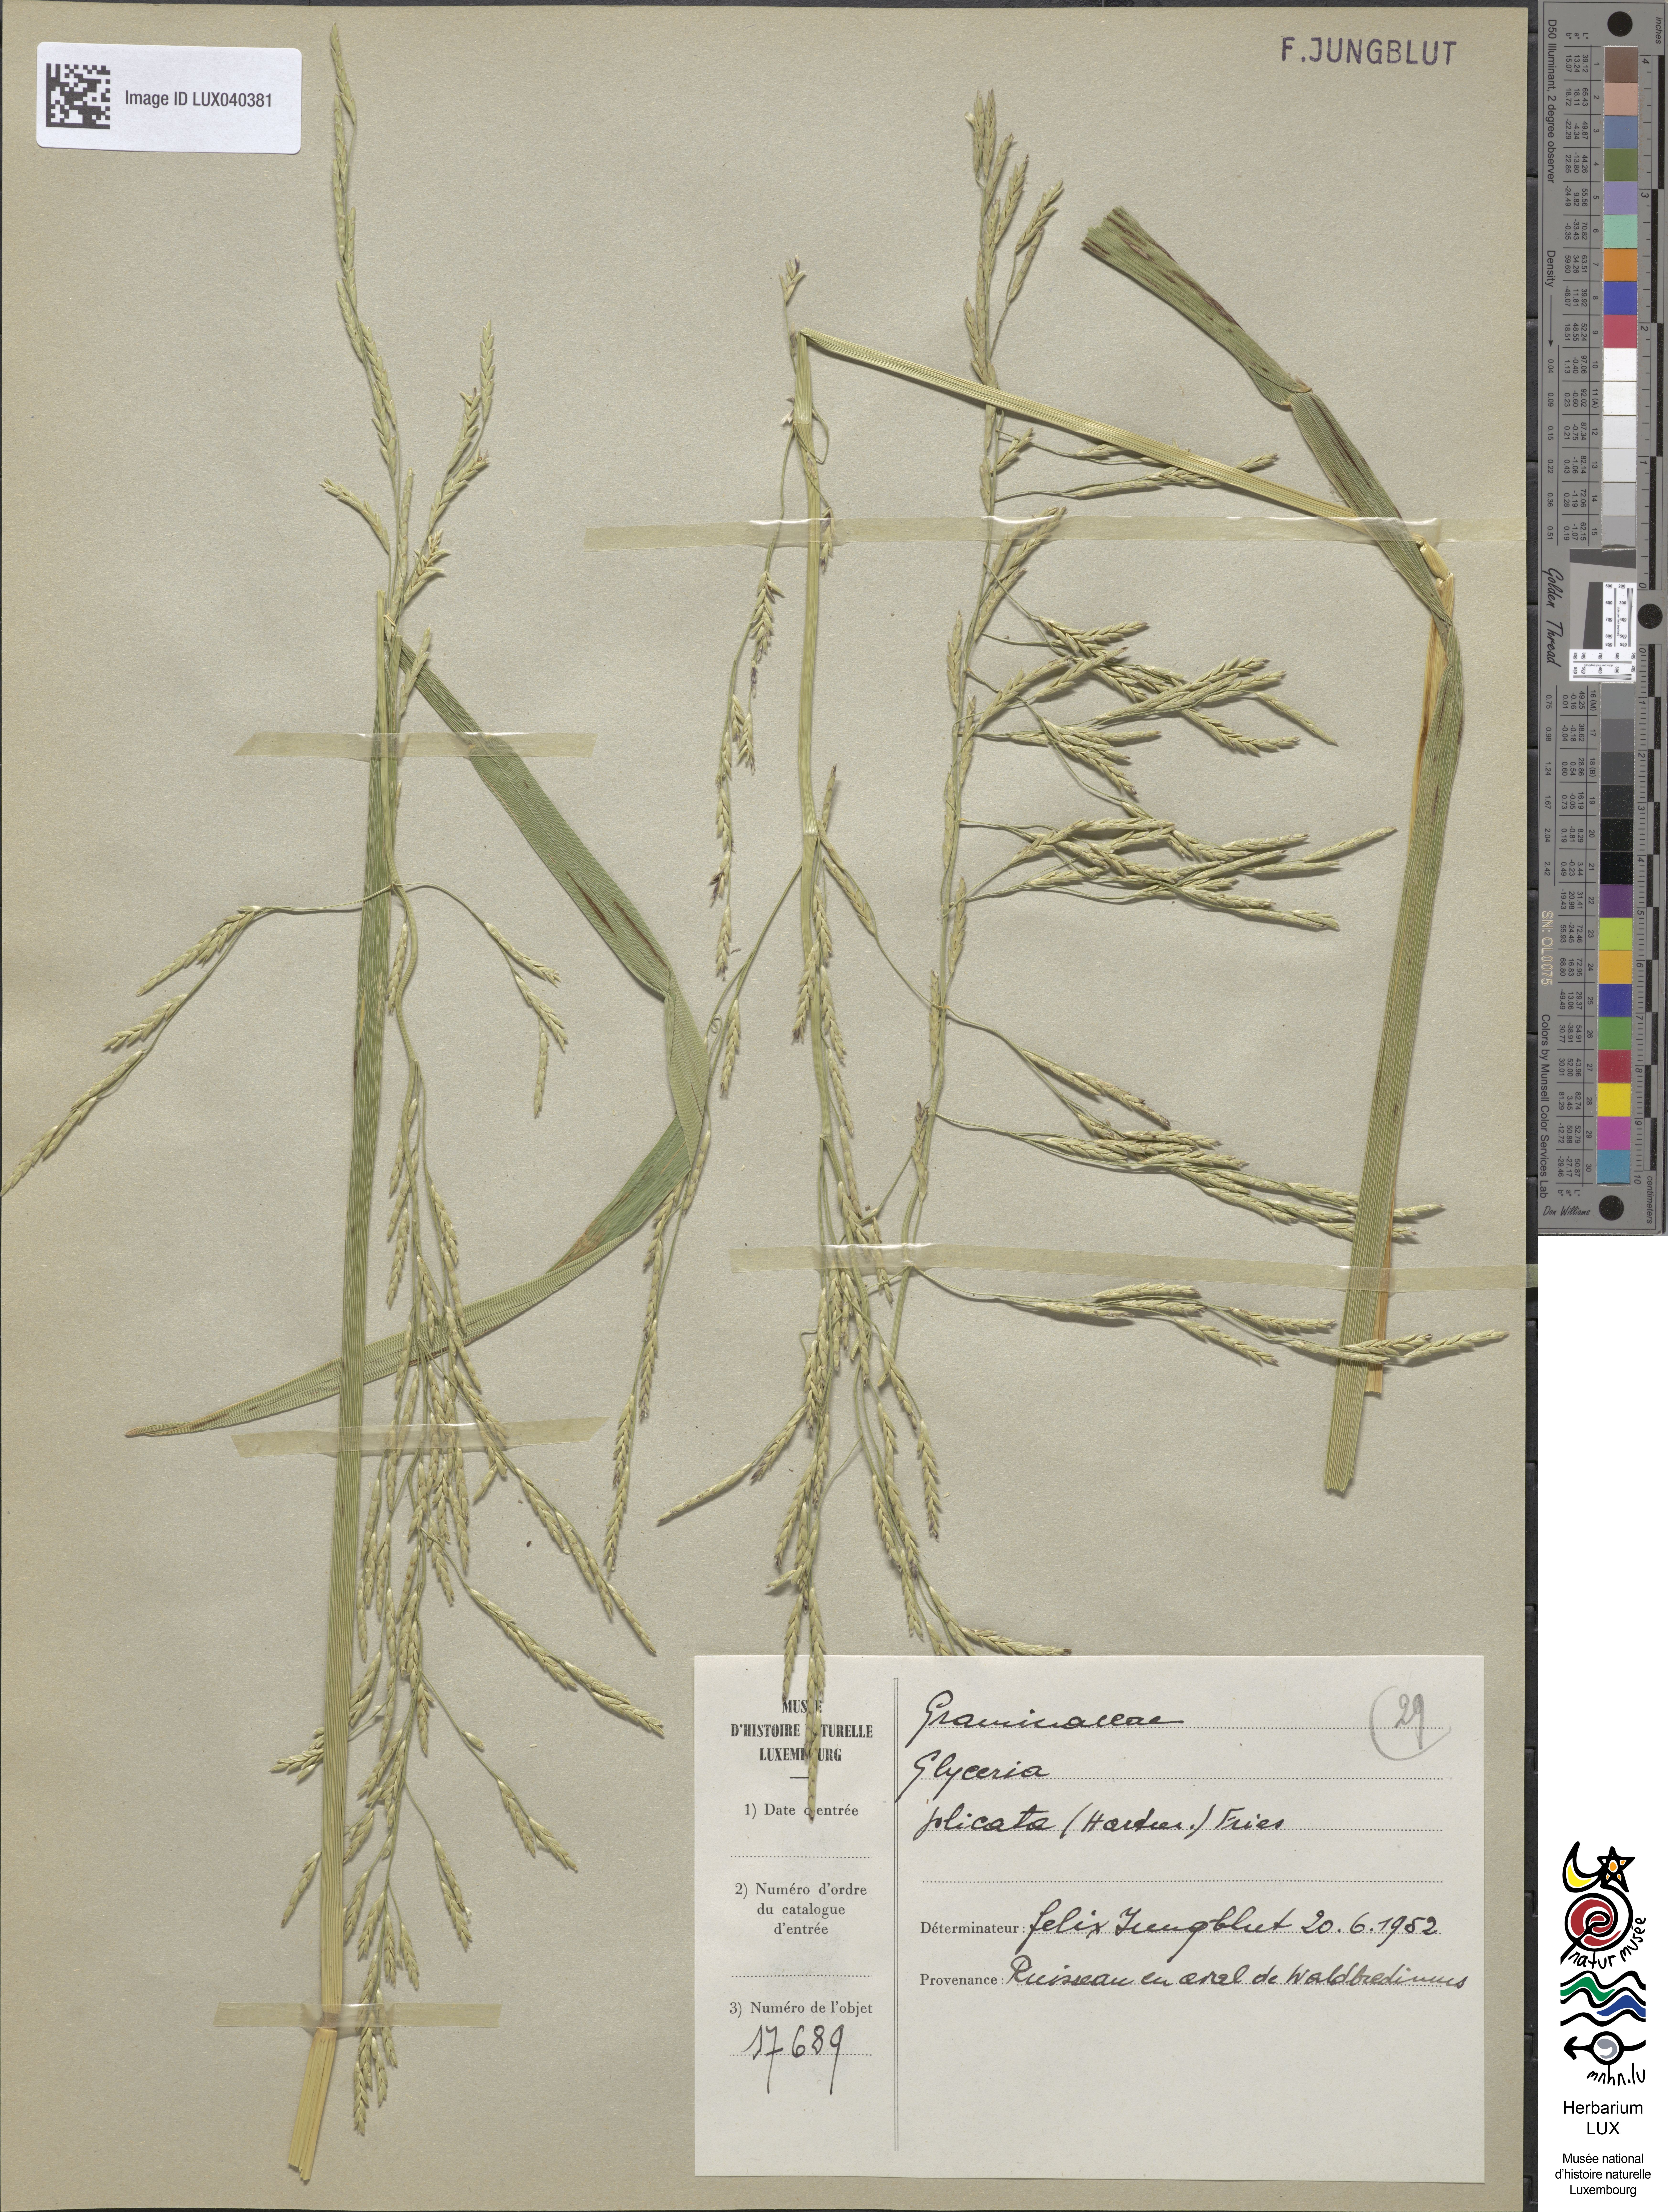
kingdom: Plantae
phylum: Tracheophyta
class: Liliopsida
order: Poales
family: Poaceae
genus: Glyceria
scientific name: Glyceria notata
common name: Plicate sweet-grass
